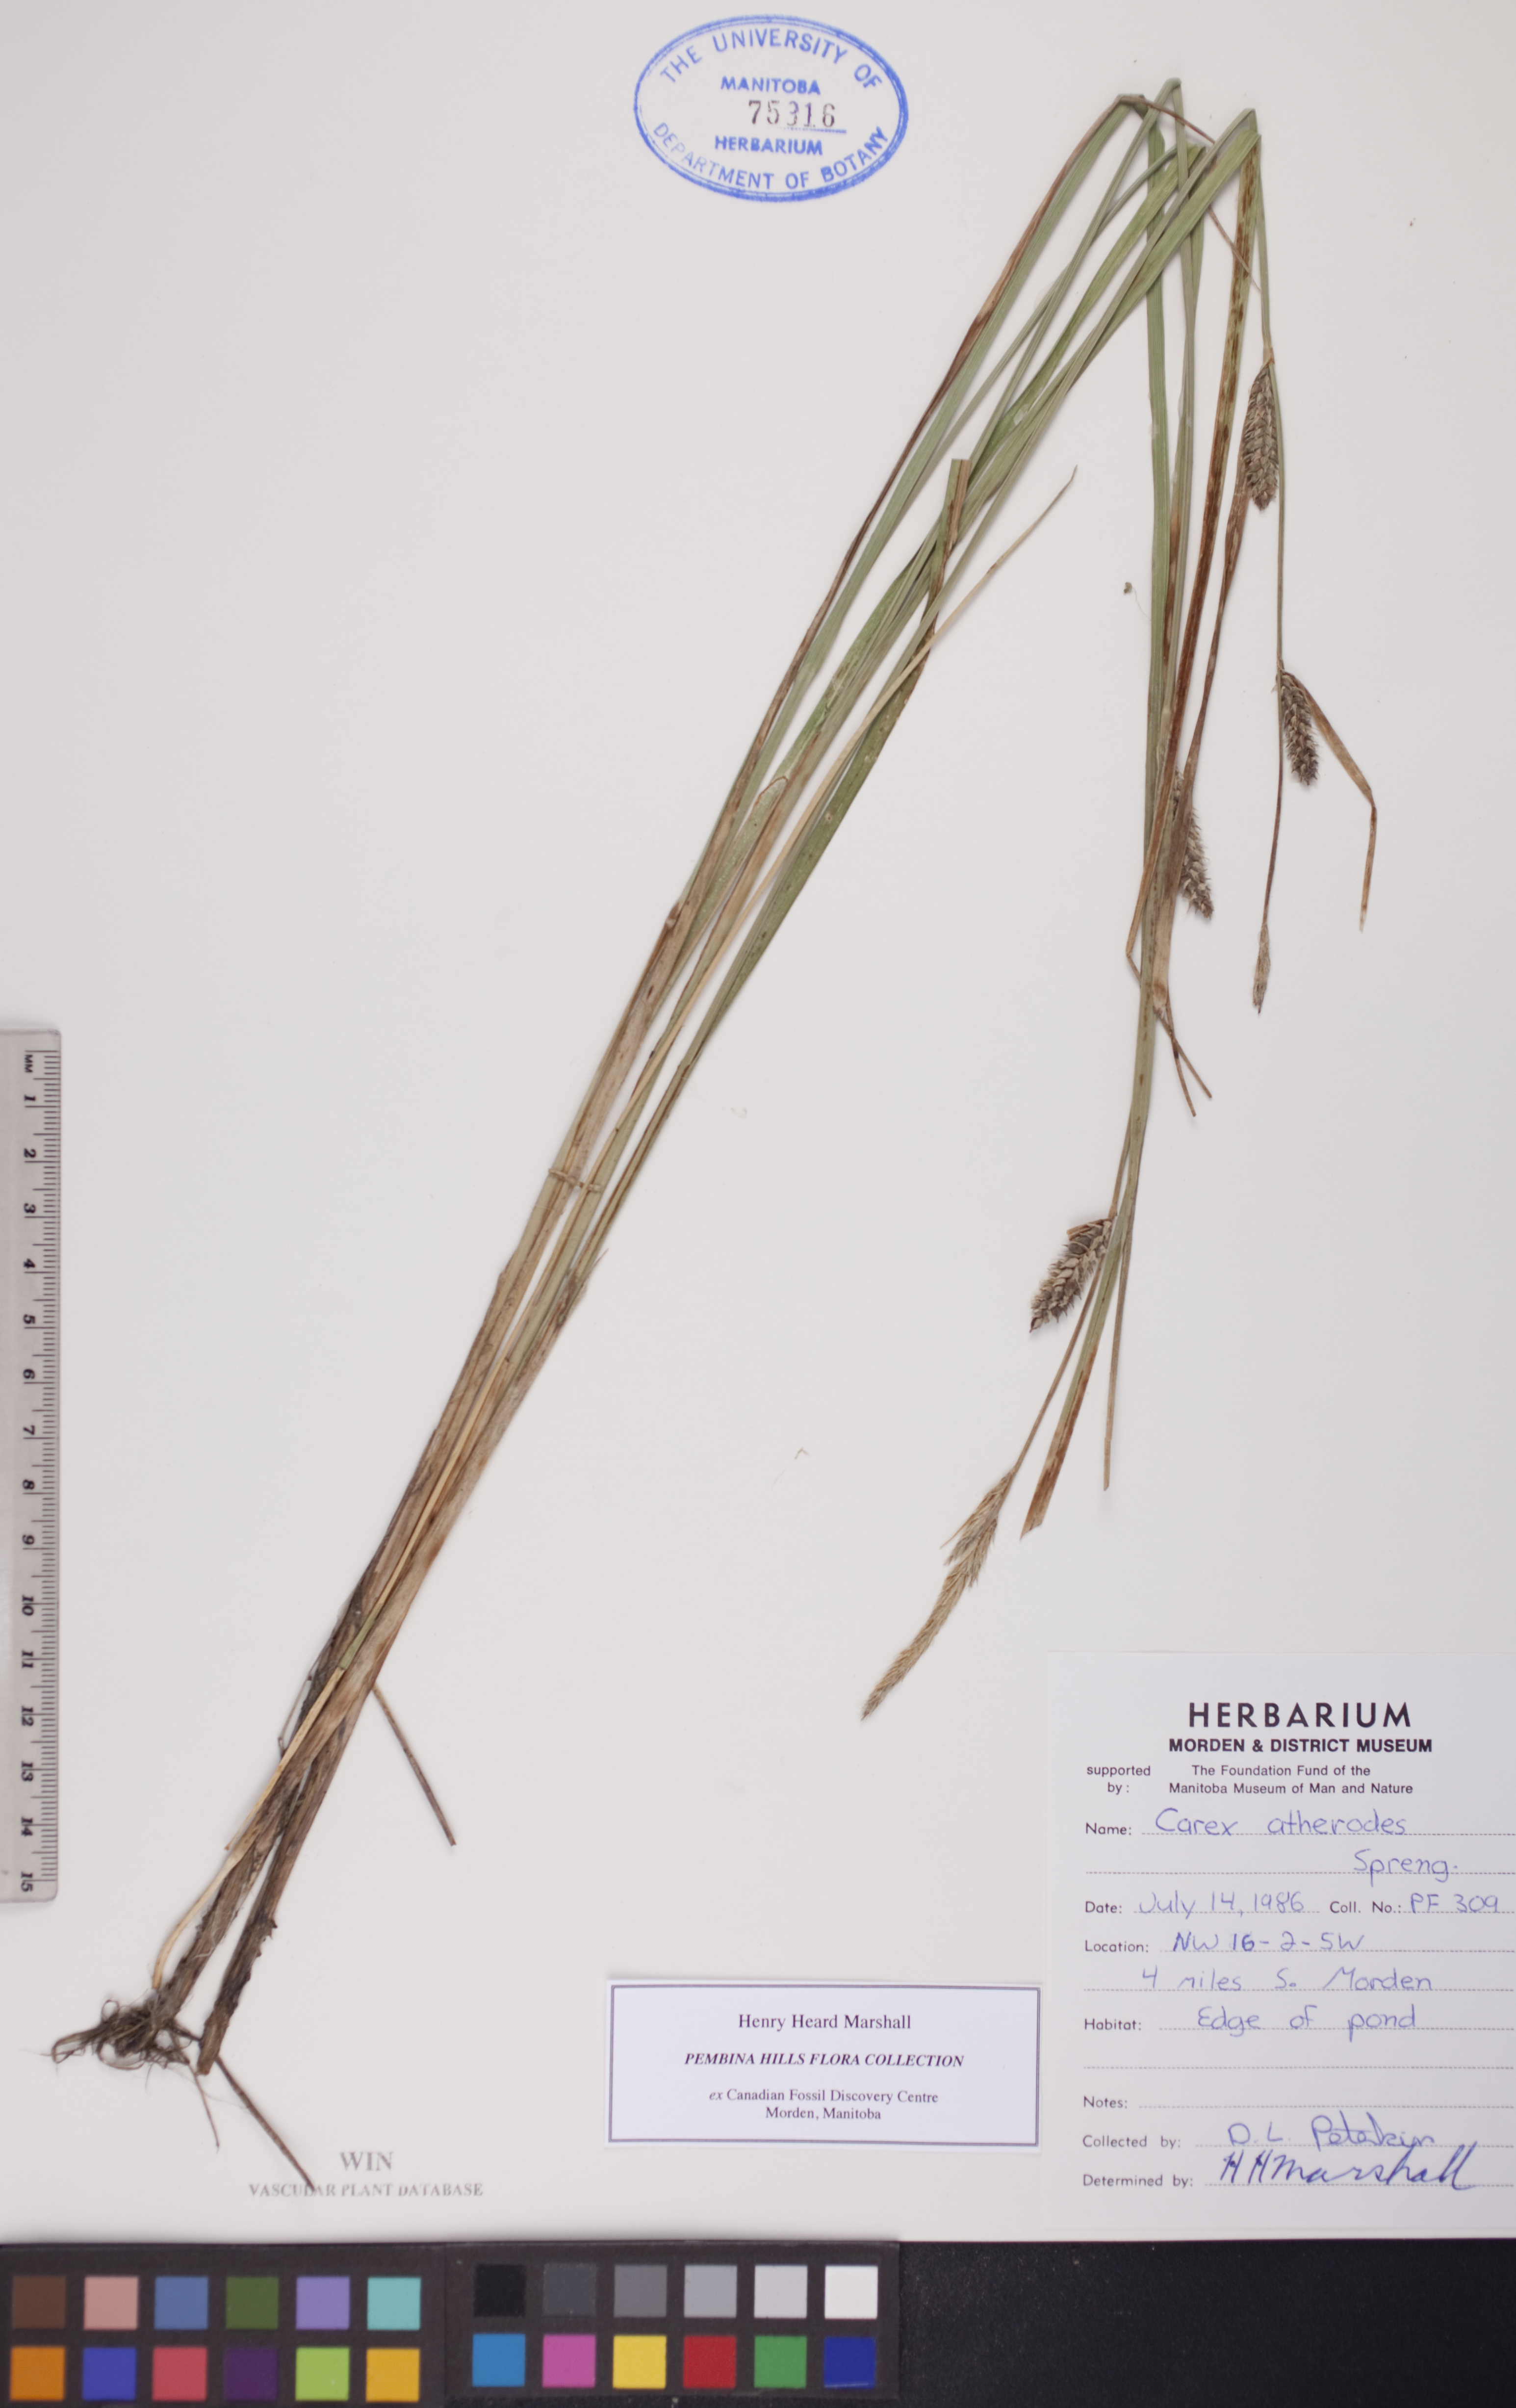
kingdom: Plantae
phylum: Tracheophyta
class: Liliopsida
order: Poales
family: Cyperaceae
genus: Carex
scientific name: Carex atherodes
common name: Wheat sedge
